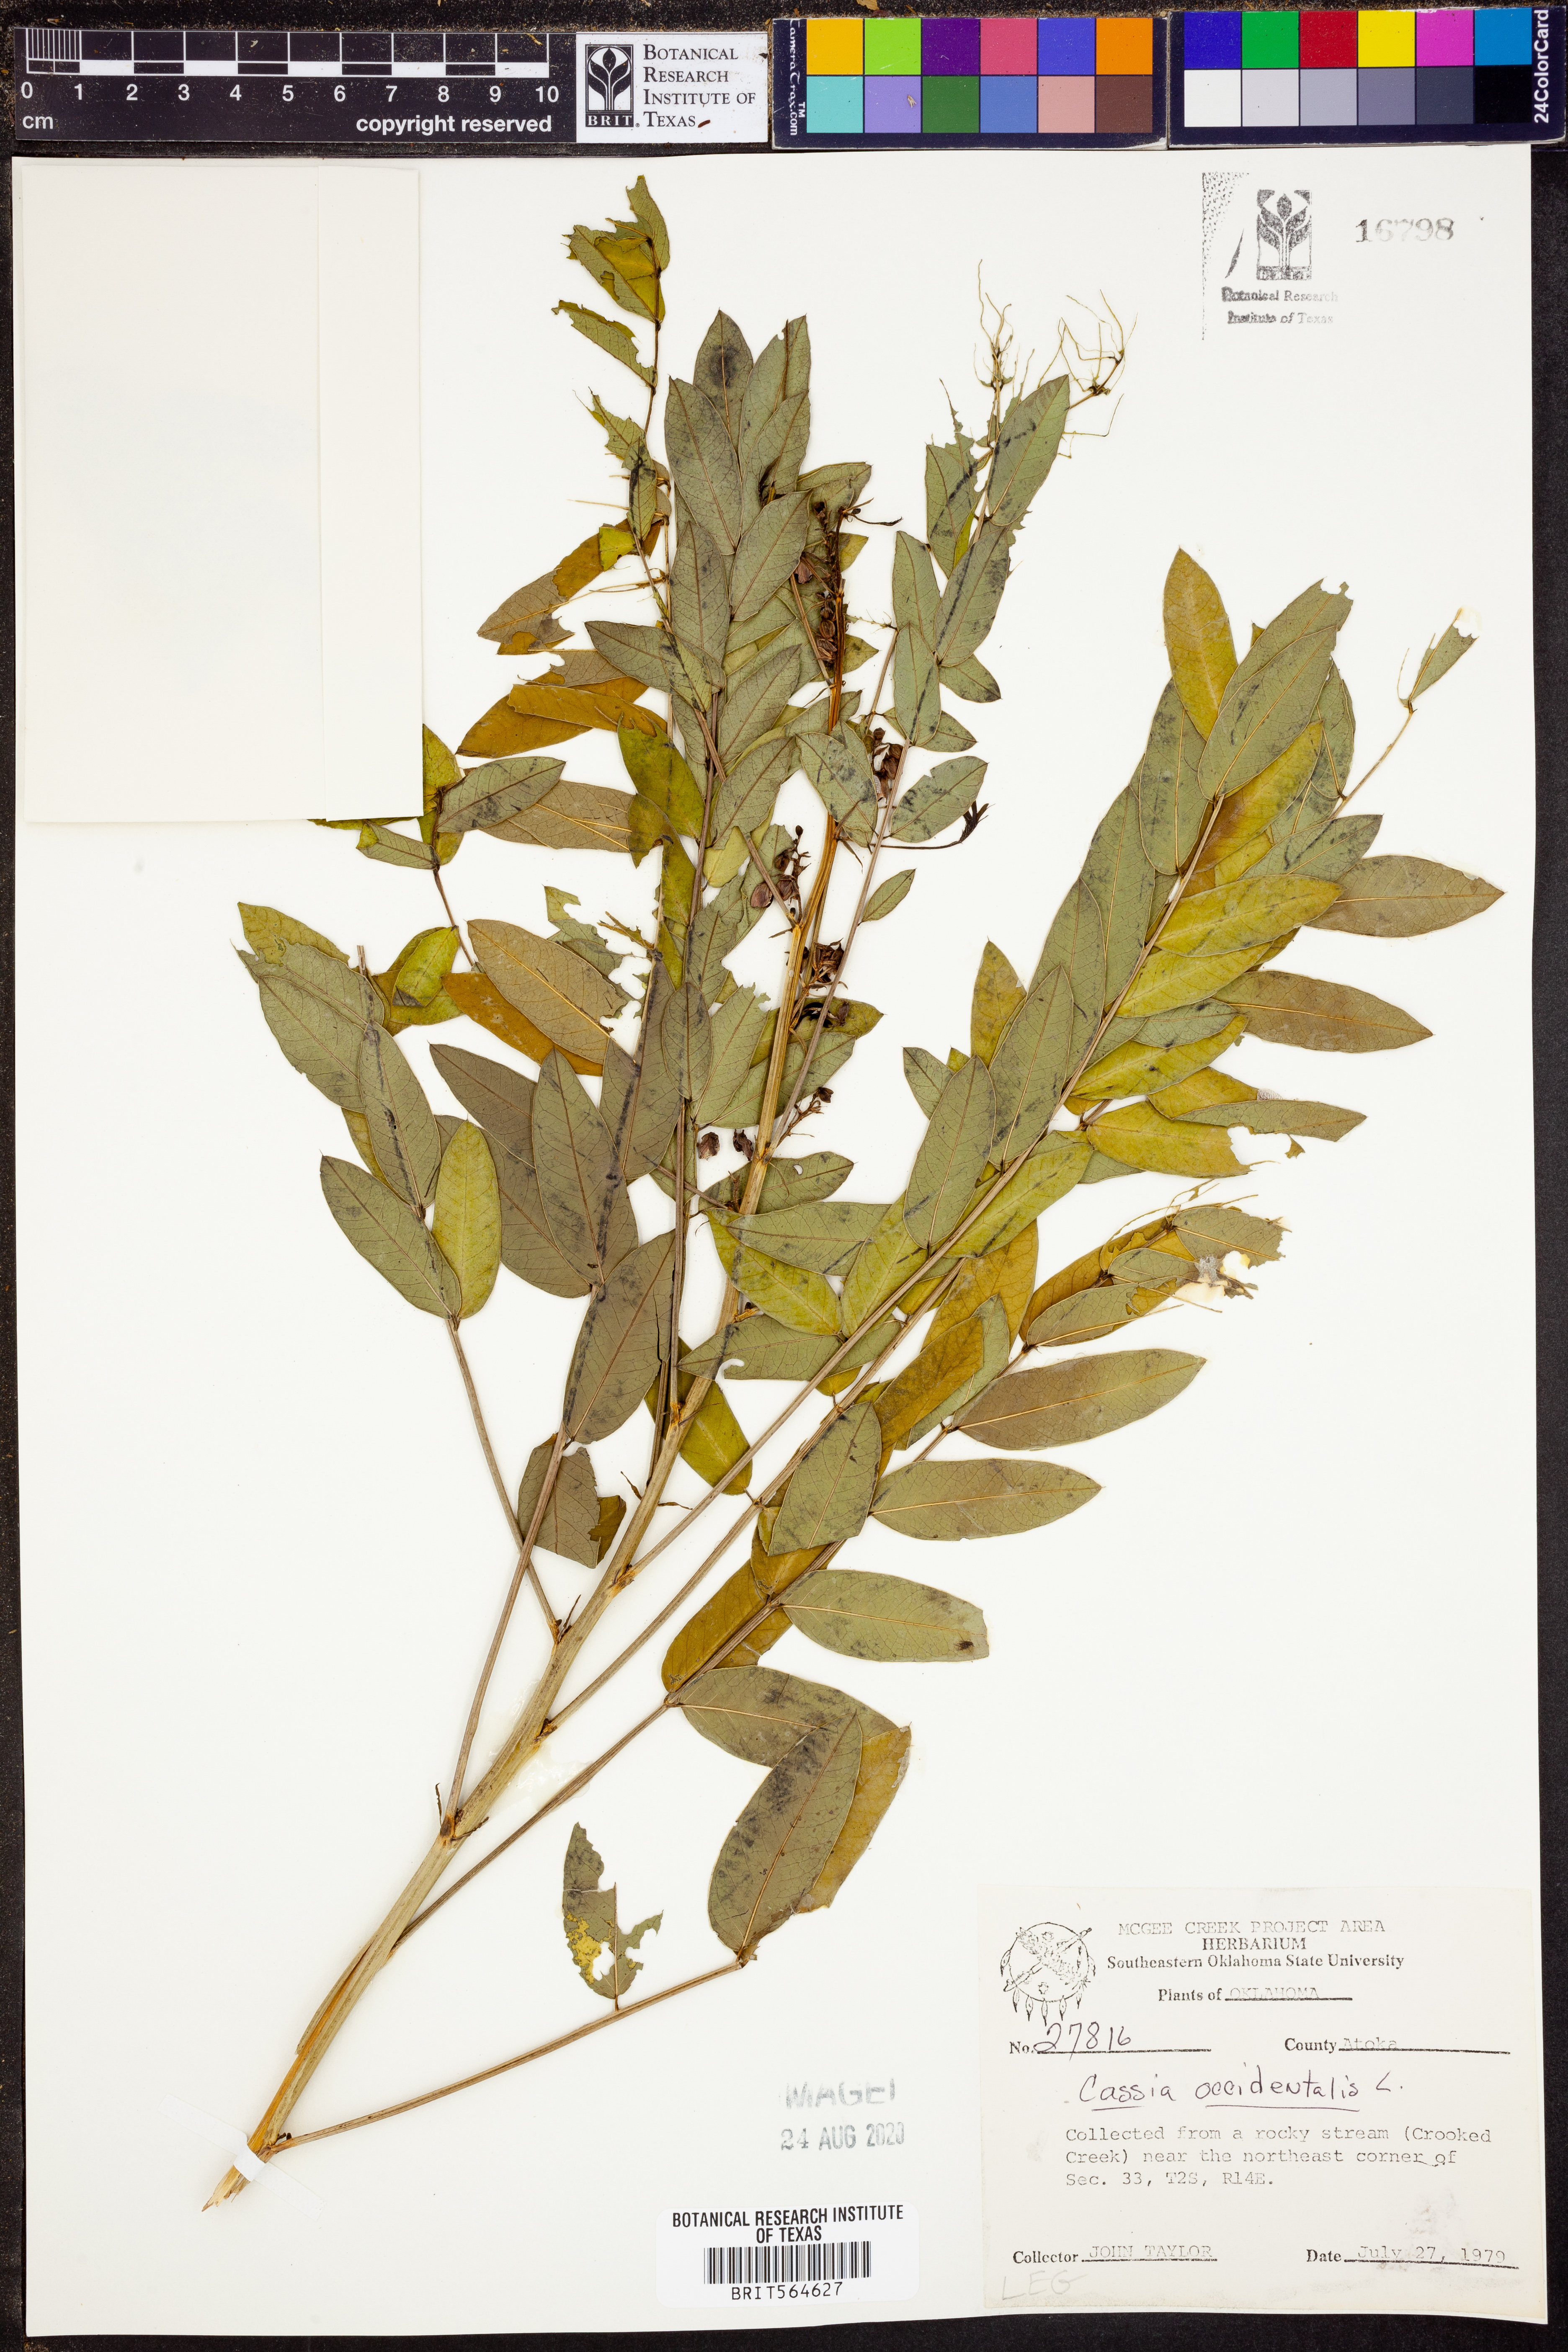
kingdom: Plantae
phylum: Tracheophyta
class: Magnoliopsida
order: Fabales
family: Fabaceae
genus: Senna
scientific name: Senna occidentalis
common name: Septicweed
